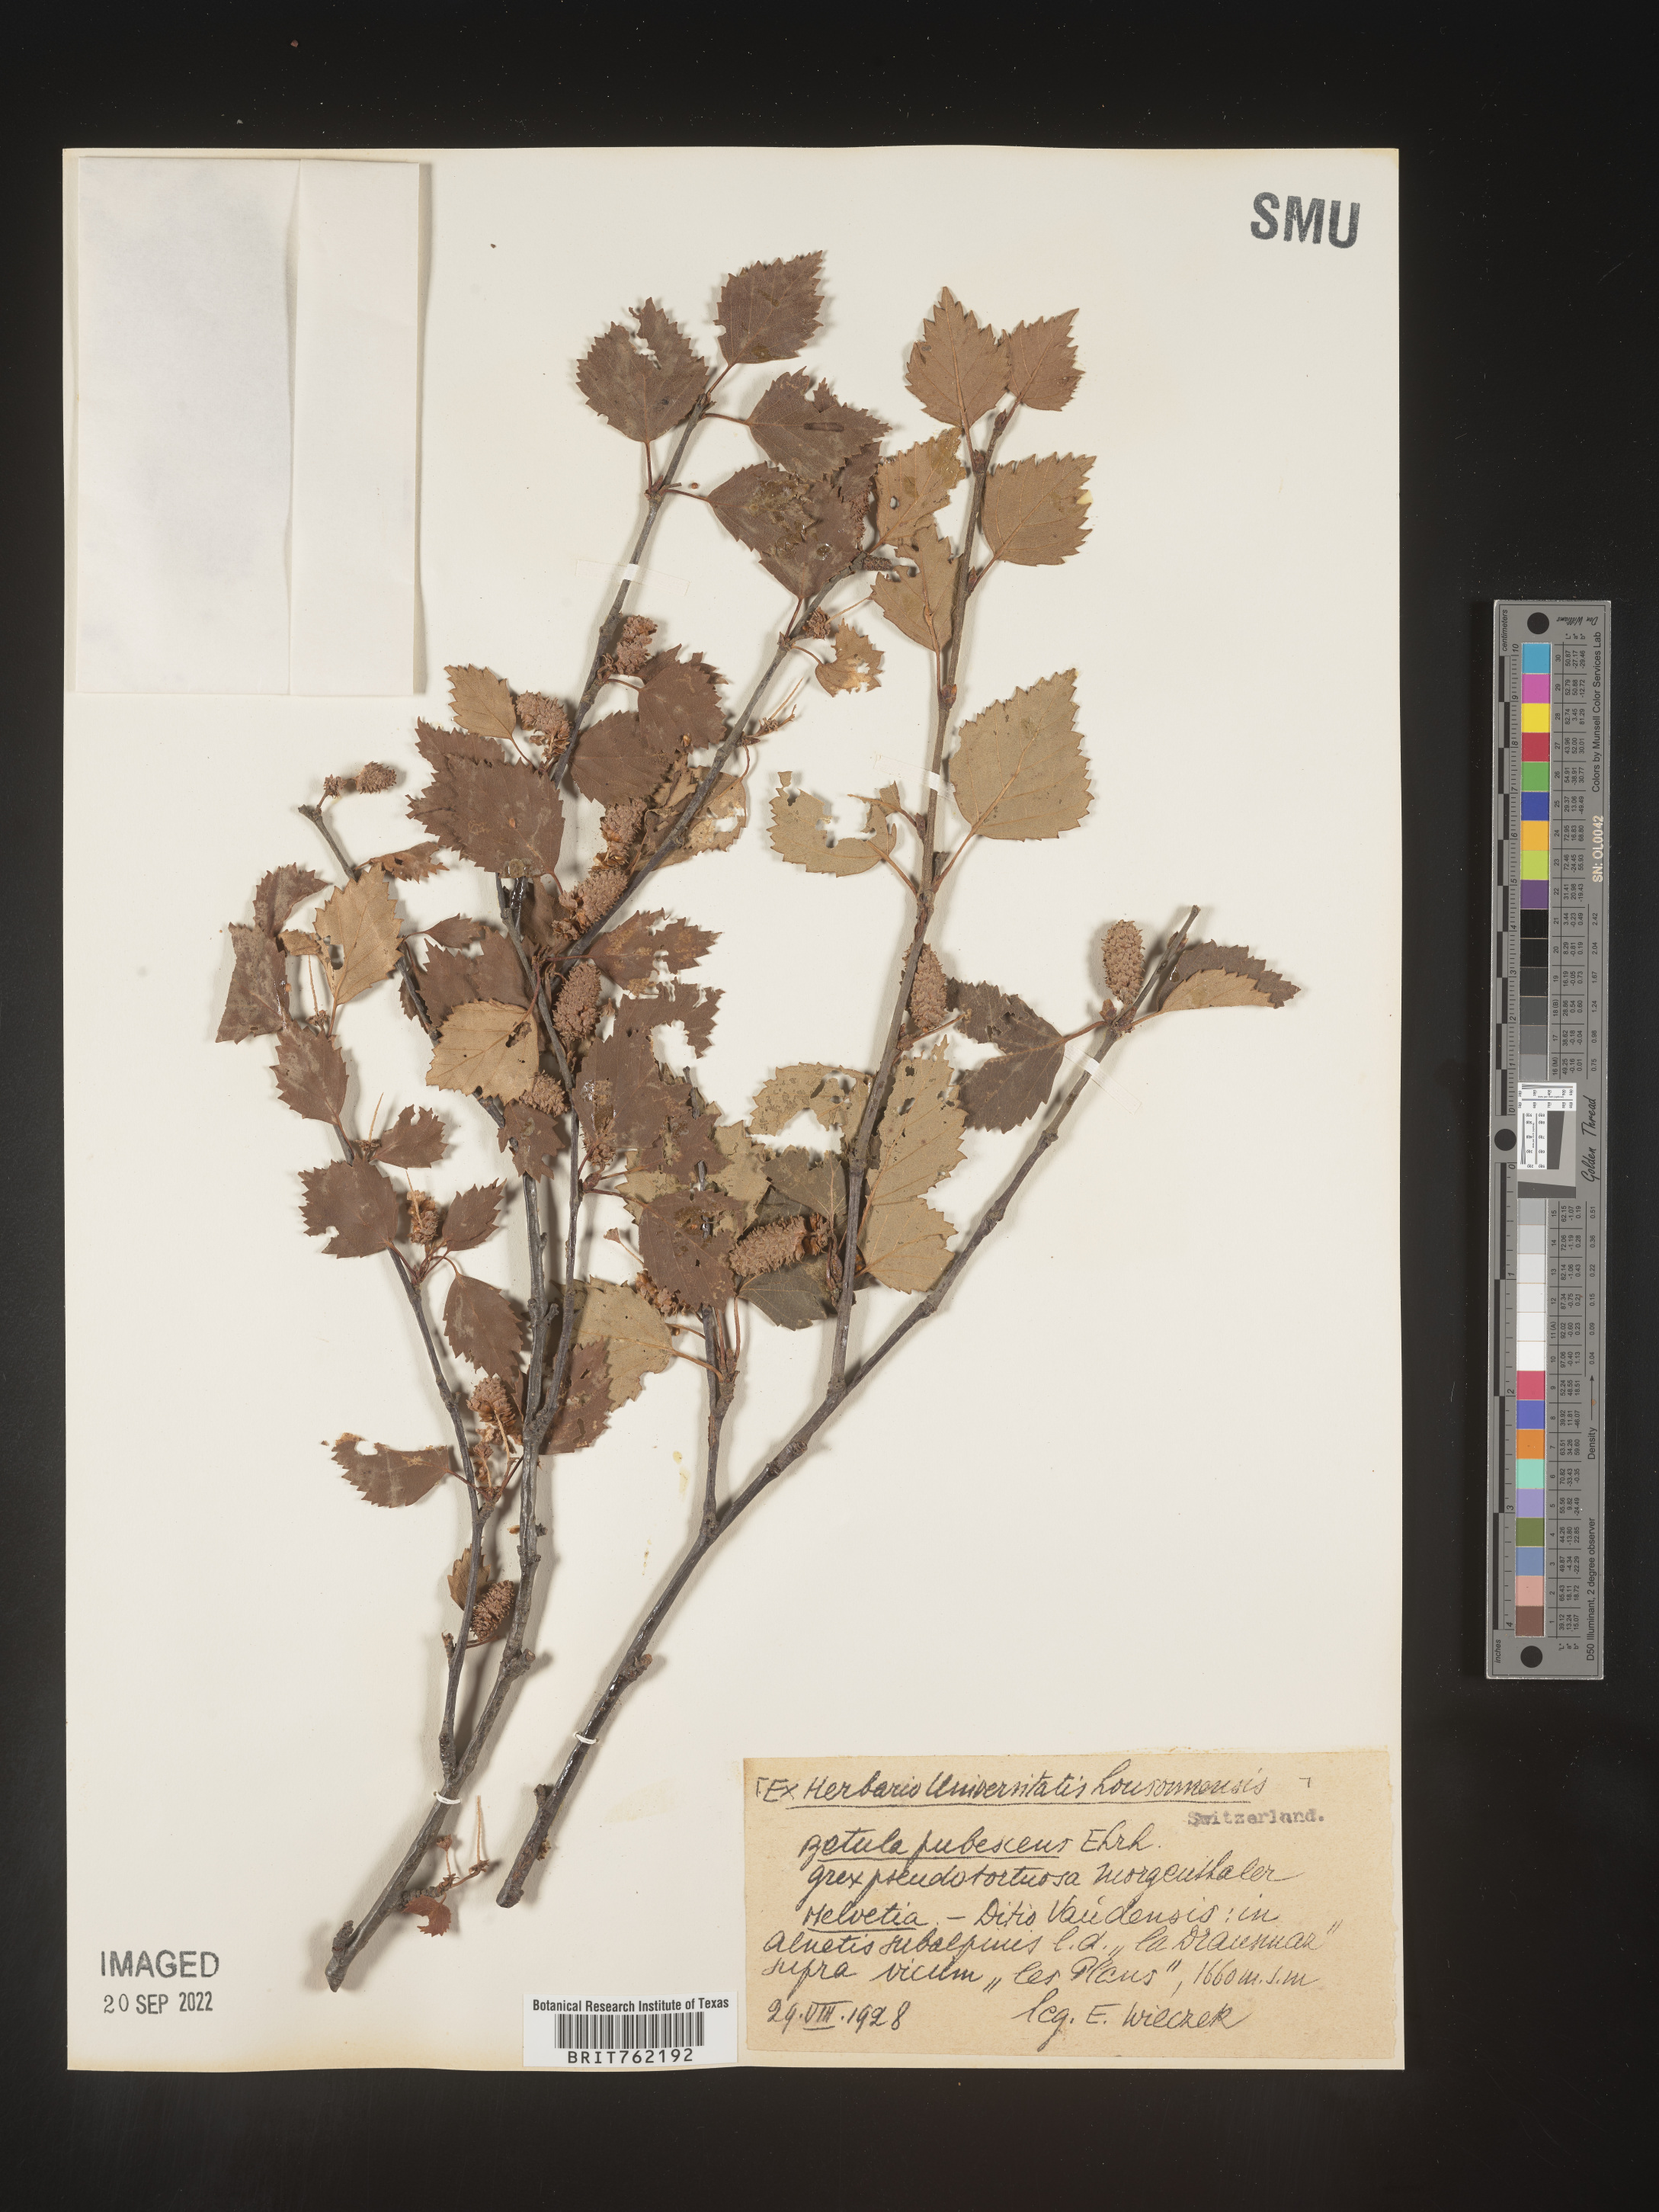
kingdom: Plantae
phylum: Tracheophyta
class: Magnoliopsida
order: Fagales
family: Betulaceae
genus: Betula
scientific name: Betula
